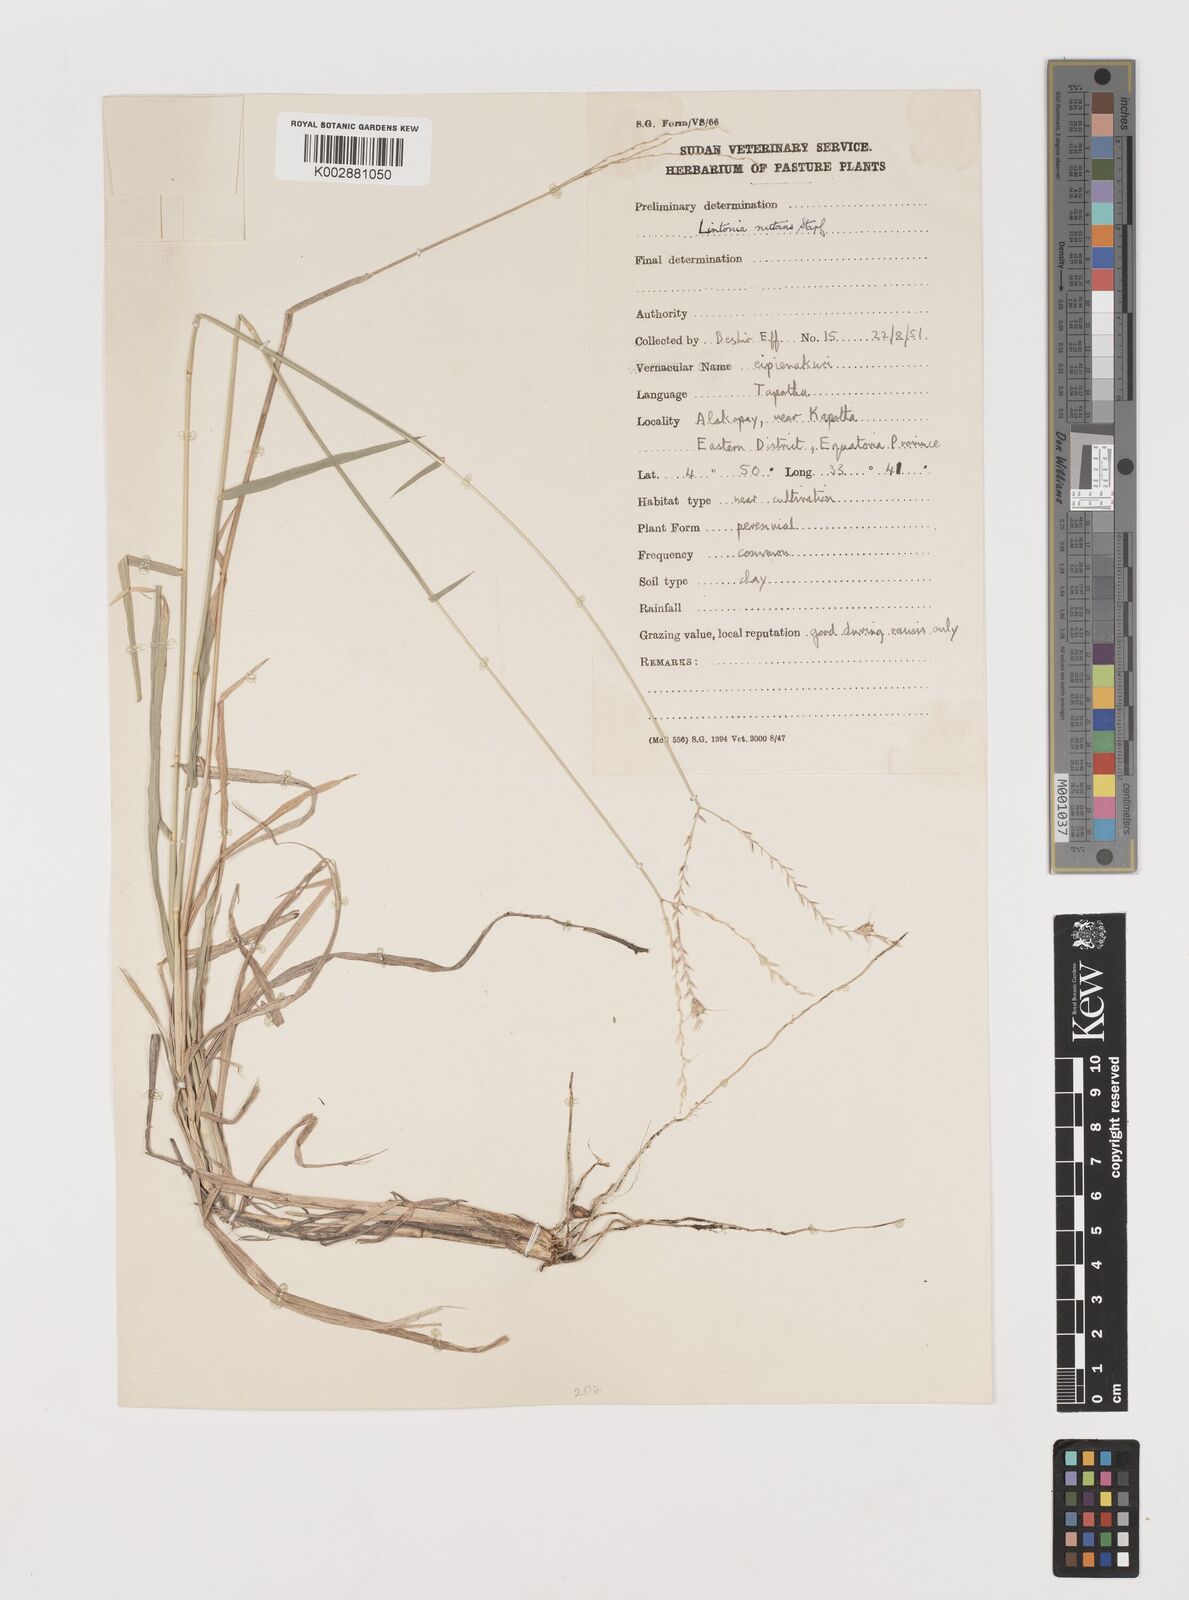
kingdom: Plantae
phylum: Tracheophyta
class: Liliopsida
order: Poales
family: Poaceae
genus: Chloris
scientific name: Chloris nutans
